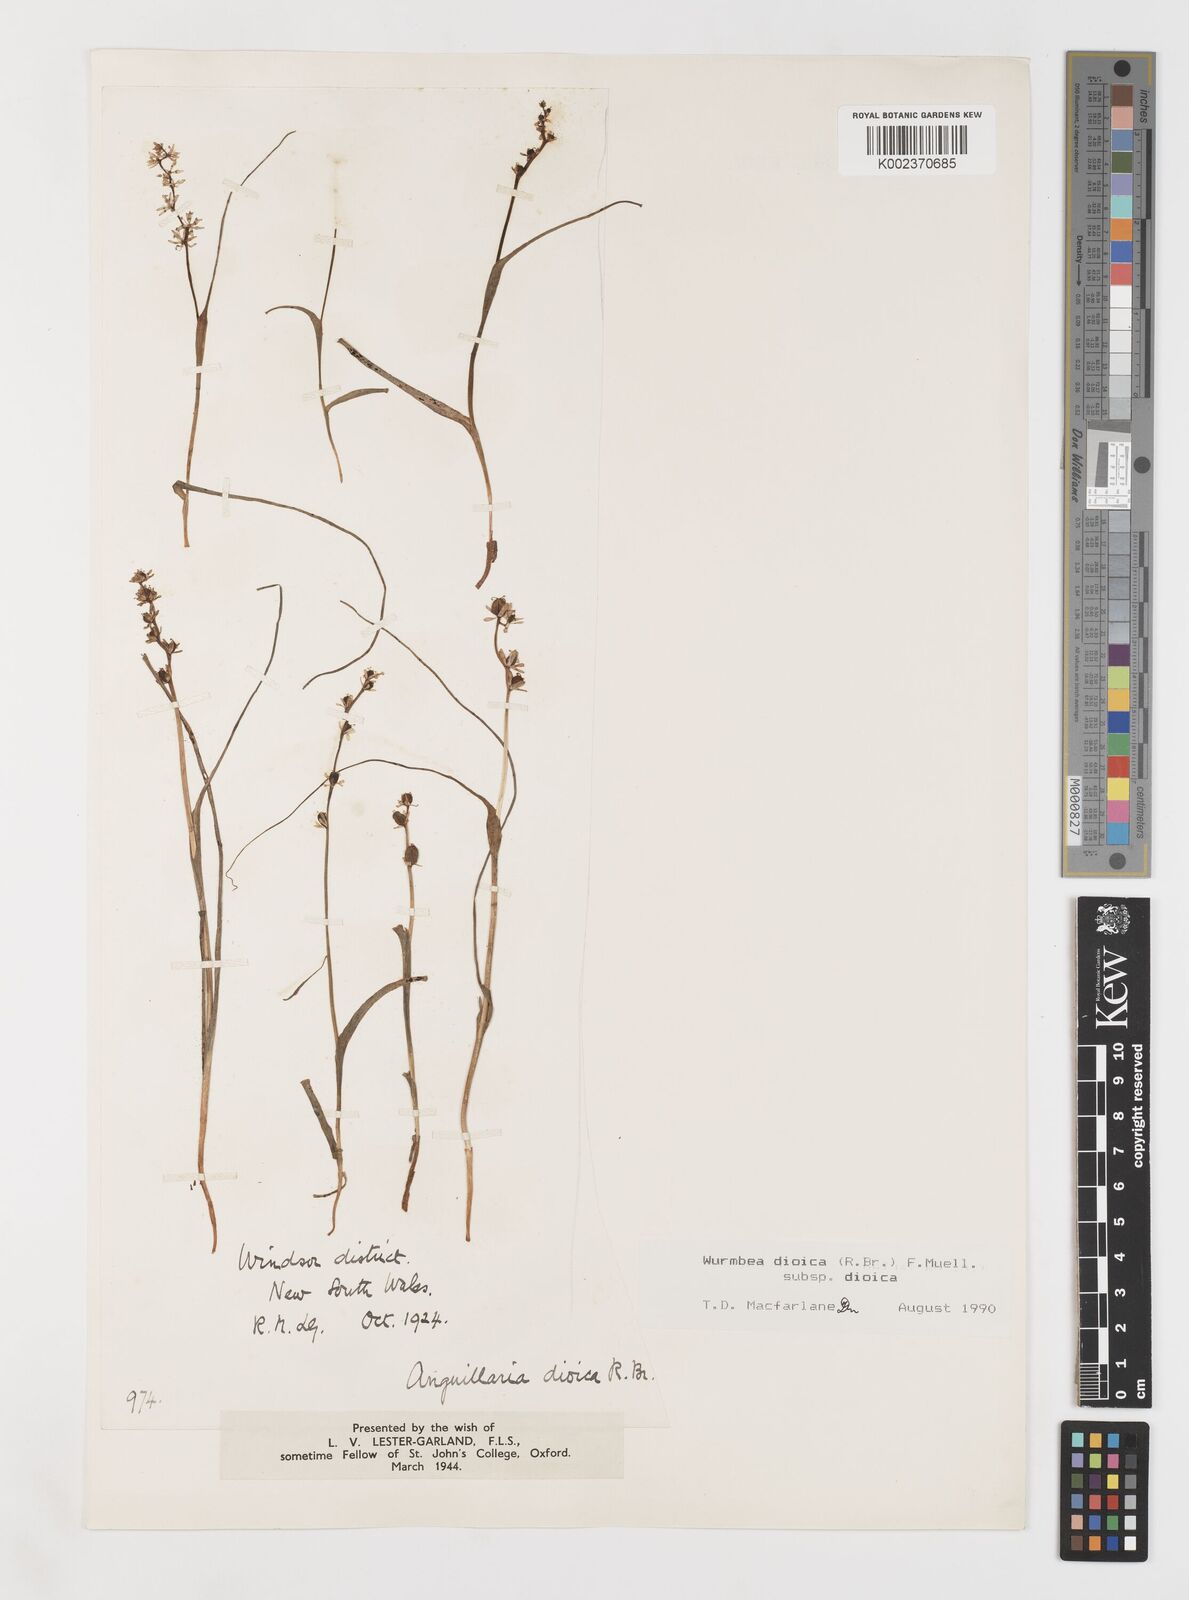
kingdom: Plantae
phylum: Tracheophyta
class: Liliopsida
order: Liliales
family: Colchicaceae
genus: Wurmbea
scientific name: Wurmbea dioica
